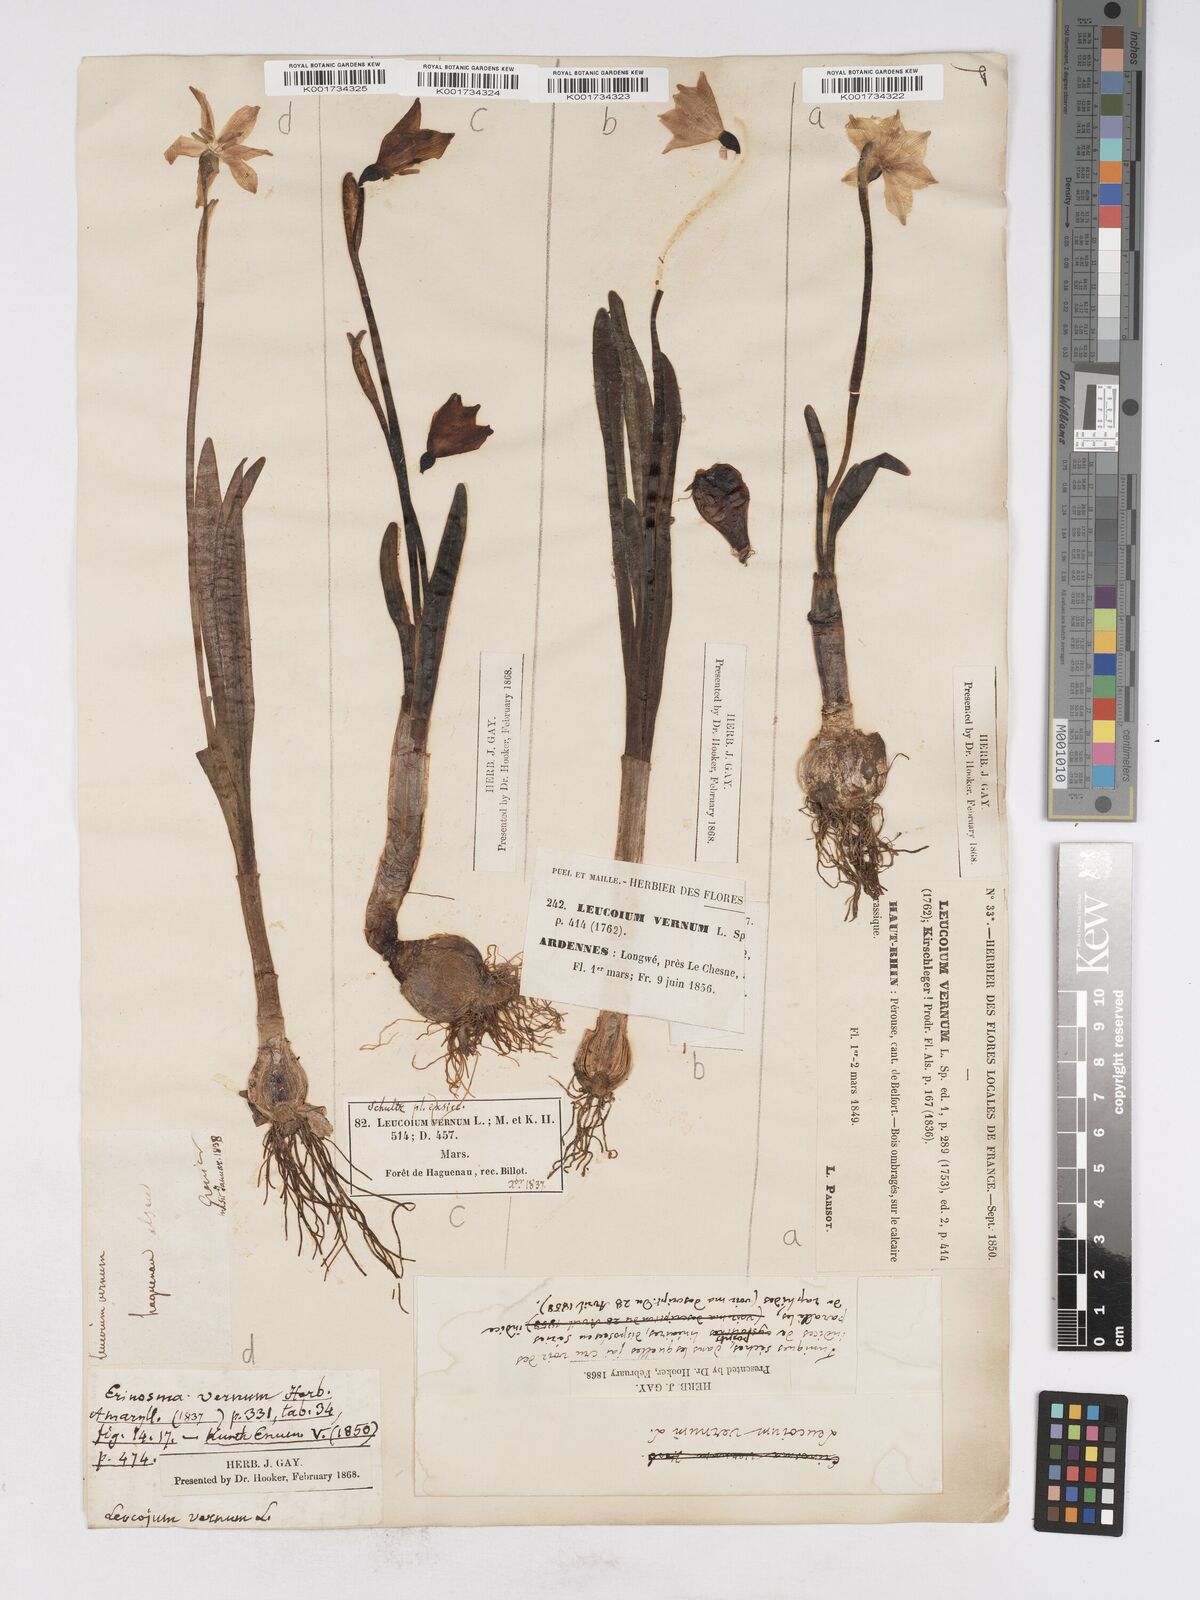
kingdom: Plantae
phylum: Tracheophyta
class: Liliopsida
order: Asparagales
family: Amaryllidaceae
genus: Leucojum
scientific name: Leucojum vernum
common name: Spring snowflake
